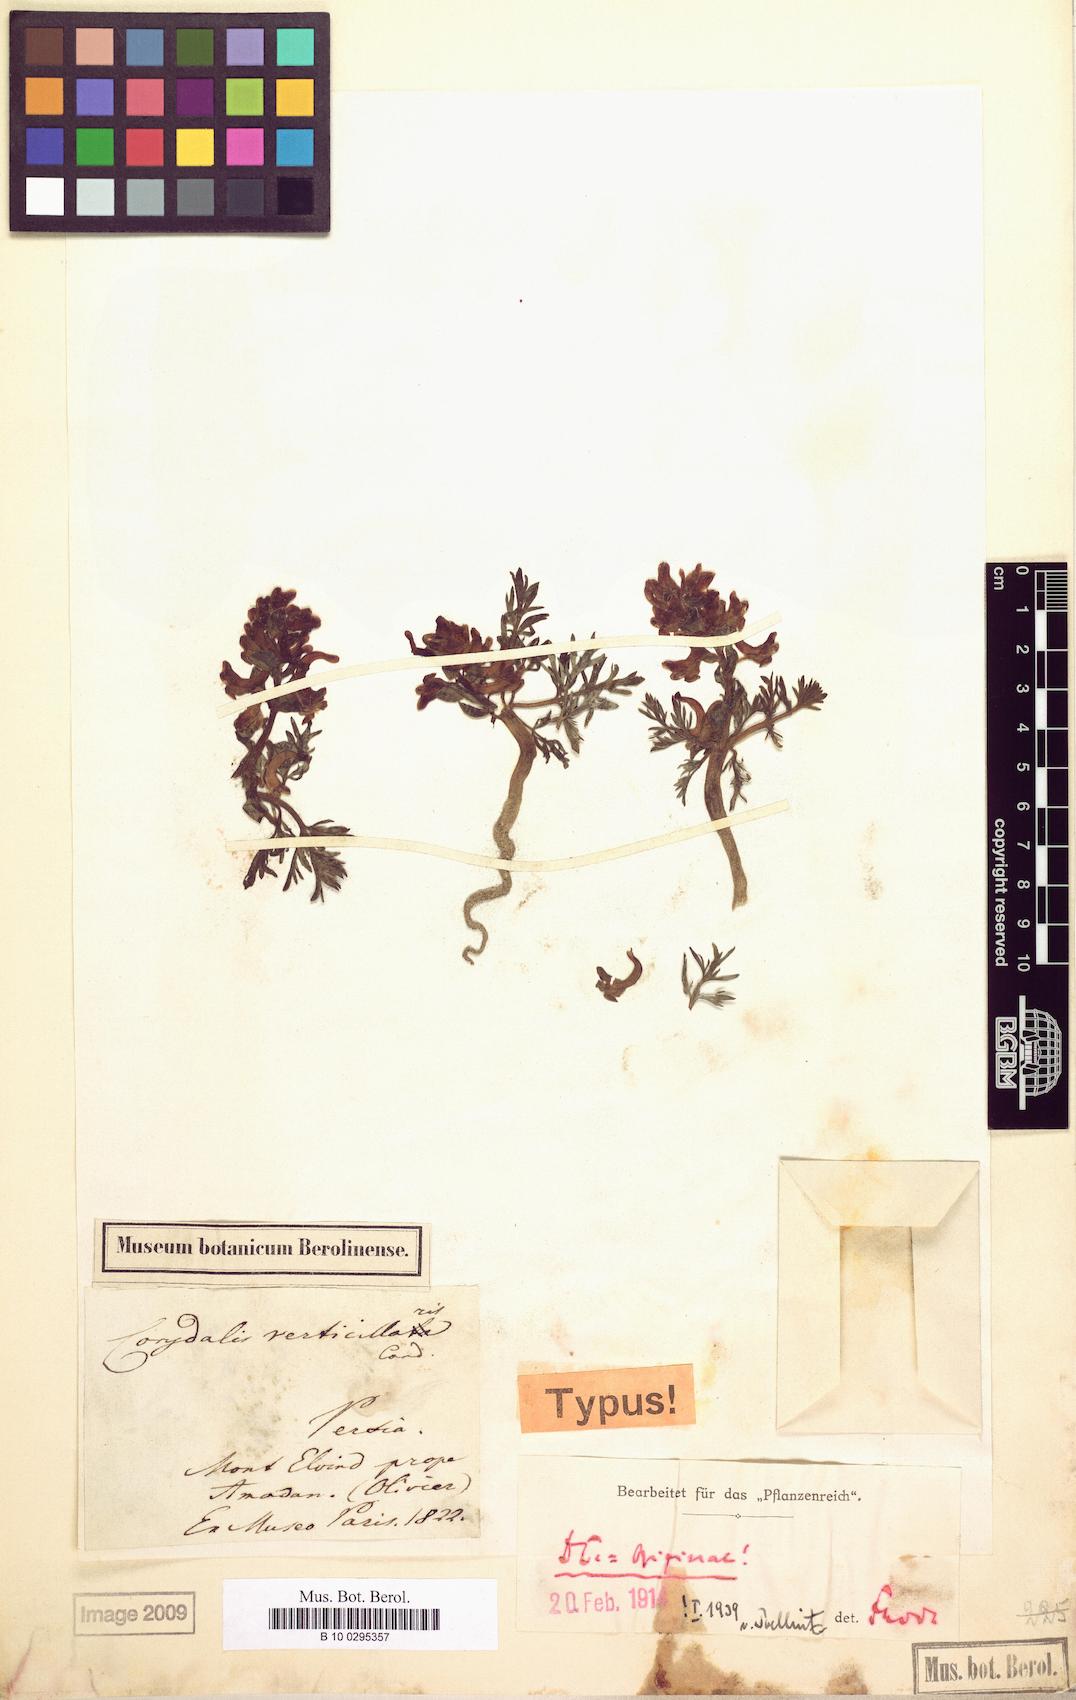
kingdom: Plantae
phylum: Tracheophyta
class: Magnoliopsida
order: Ranunculales
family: Papaveraceae
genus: Corydalis
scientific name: Corydalis verticillaris
